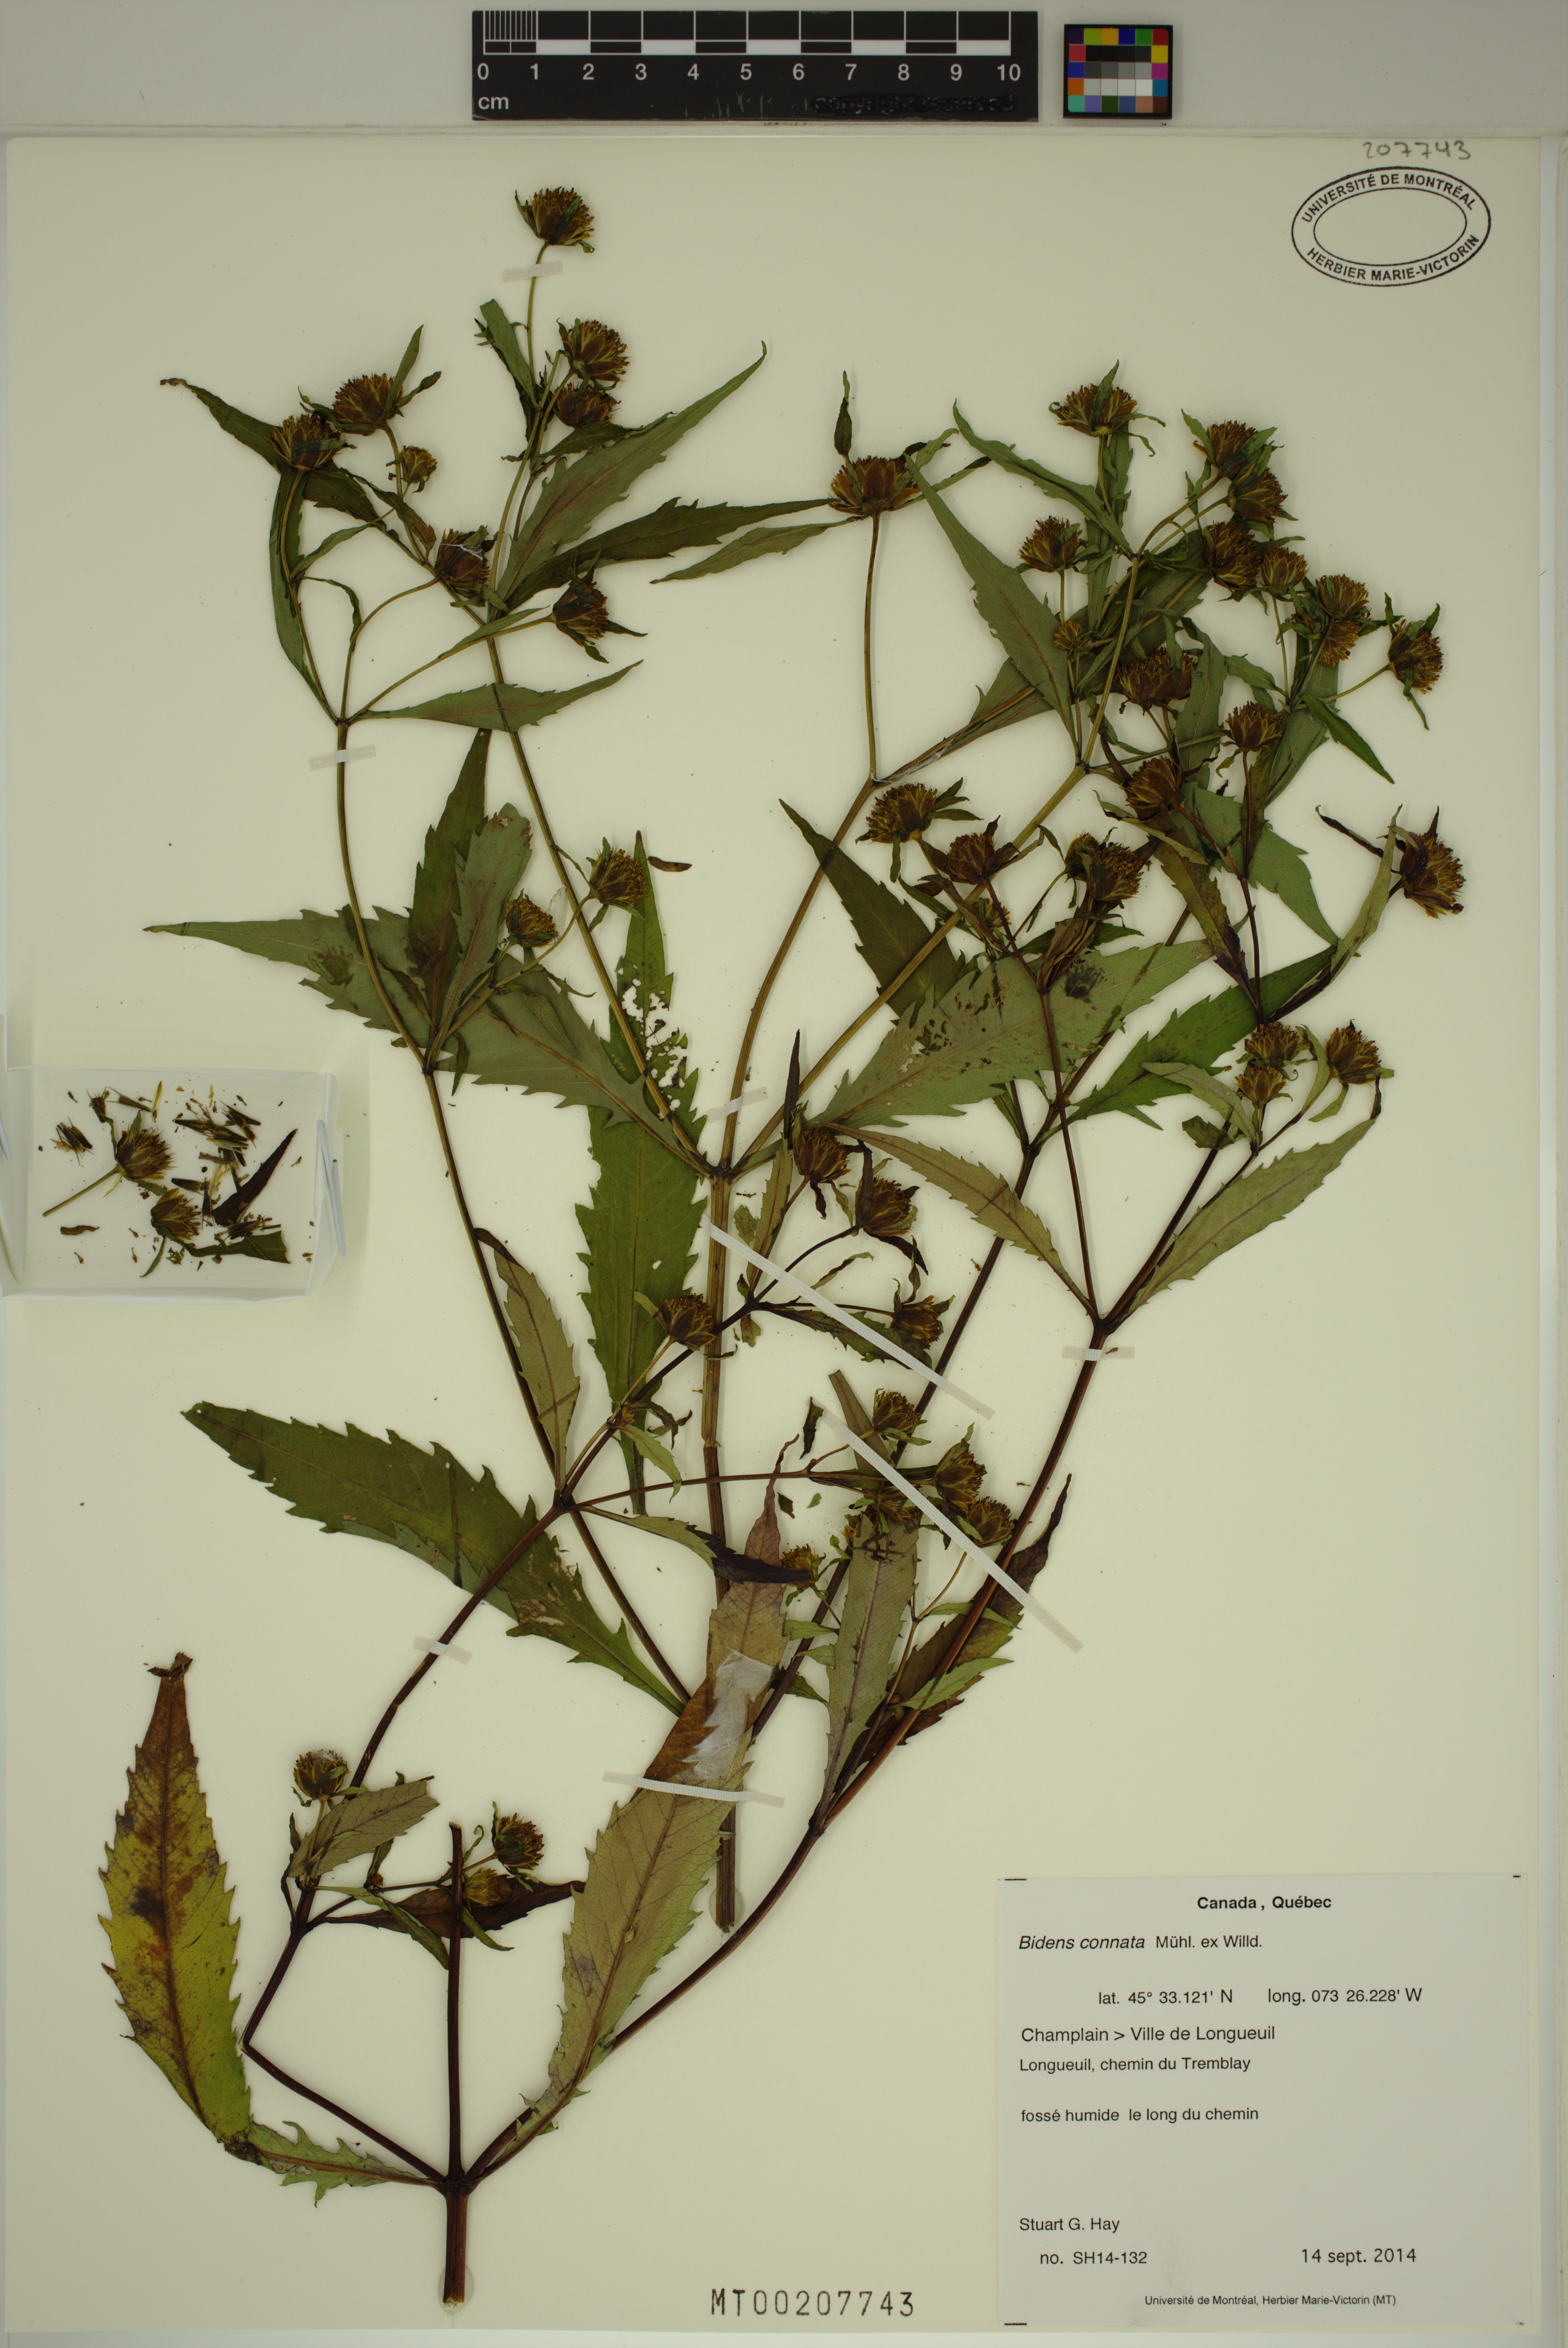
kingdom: Plantae
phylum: Tracheophyta
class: Magnoliopsida
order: Asterales
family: Asteraceae
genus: Bidens
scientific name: Bidens connata
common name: London bur-marigold
